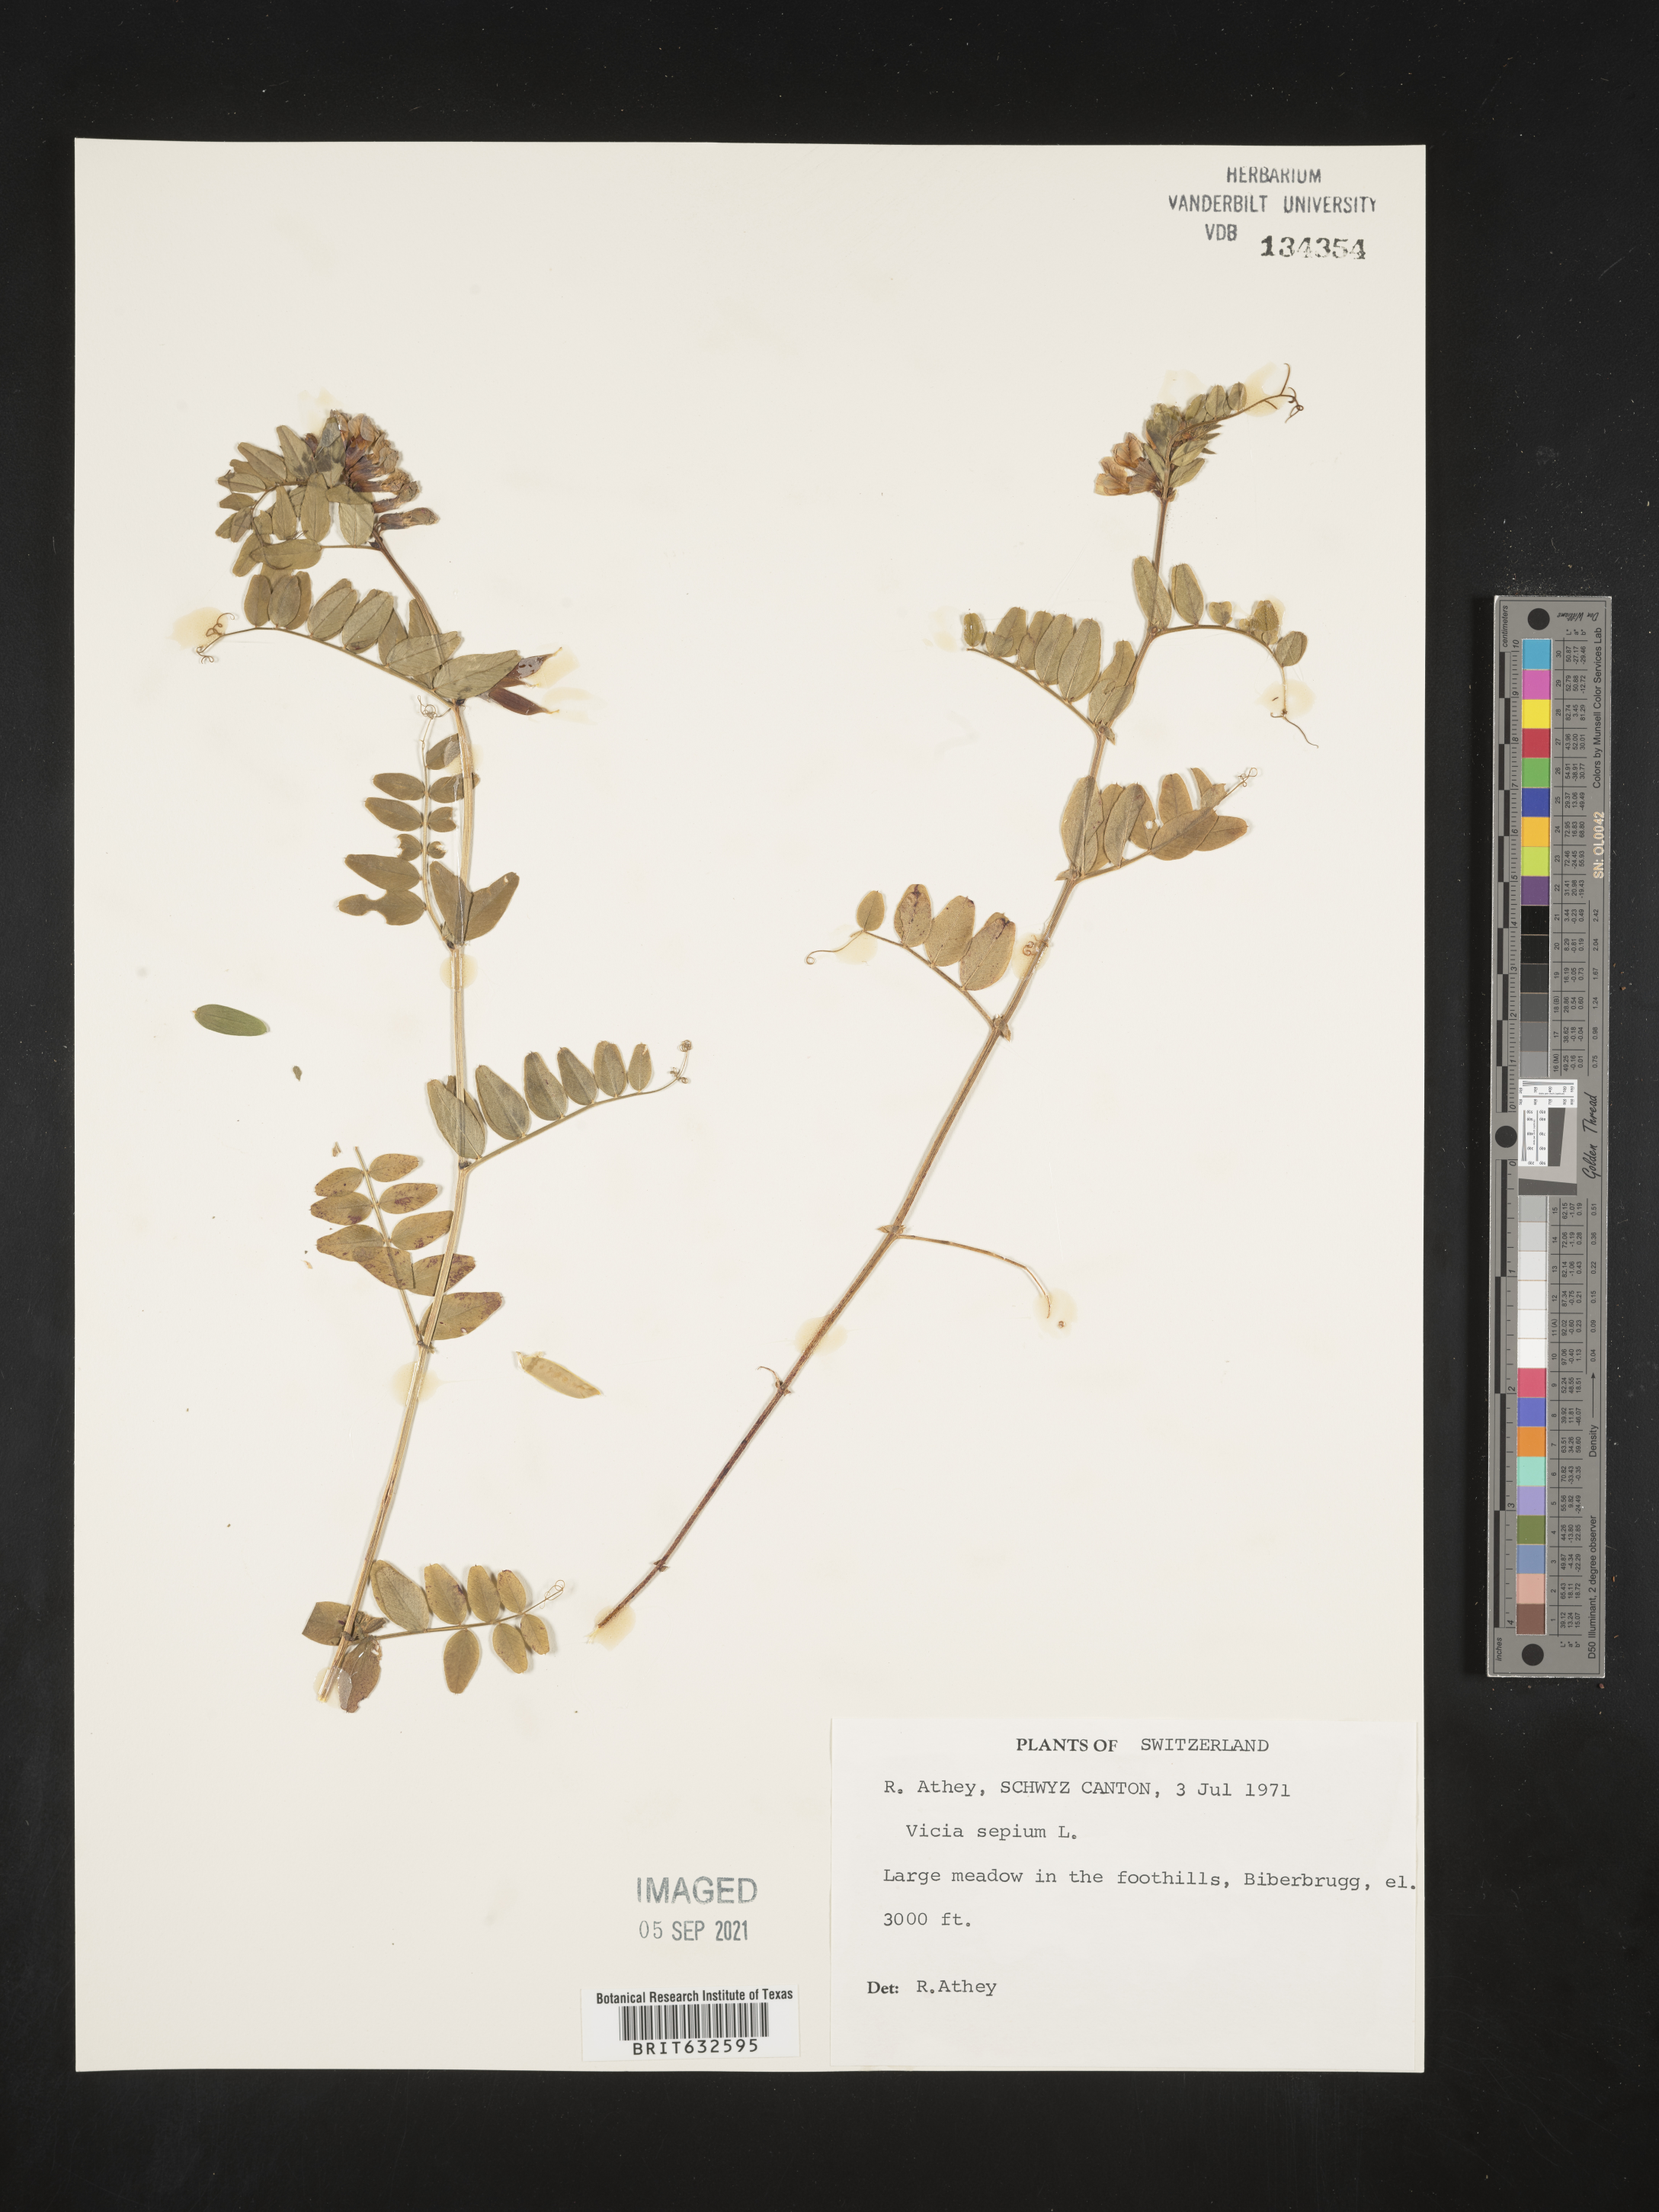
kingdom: Plantae
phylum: Tracheophyta
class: Magnoliopsida
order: Fabales
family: Fabaceae
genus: Vicia
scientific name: Vicia
